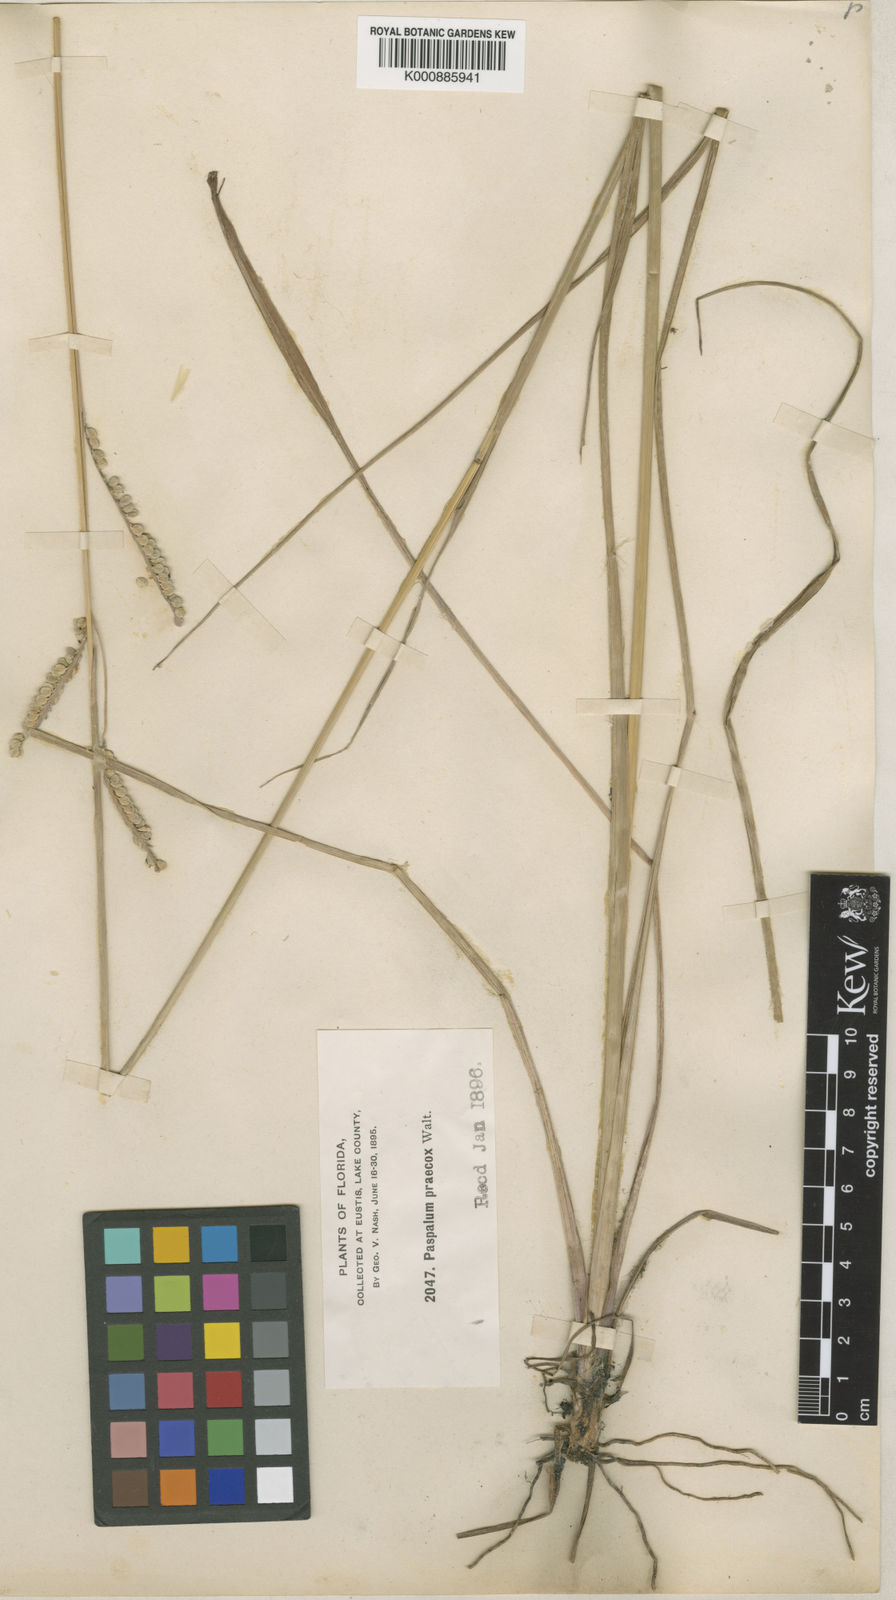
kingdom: Plantae
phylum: Tracheophyta
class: Liliopsida
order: Poales
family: Poaceae
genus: Paspalum
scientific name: Paspalum praecox
